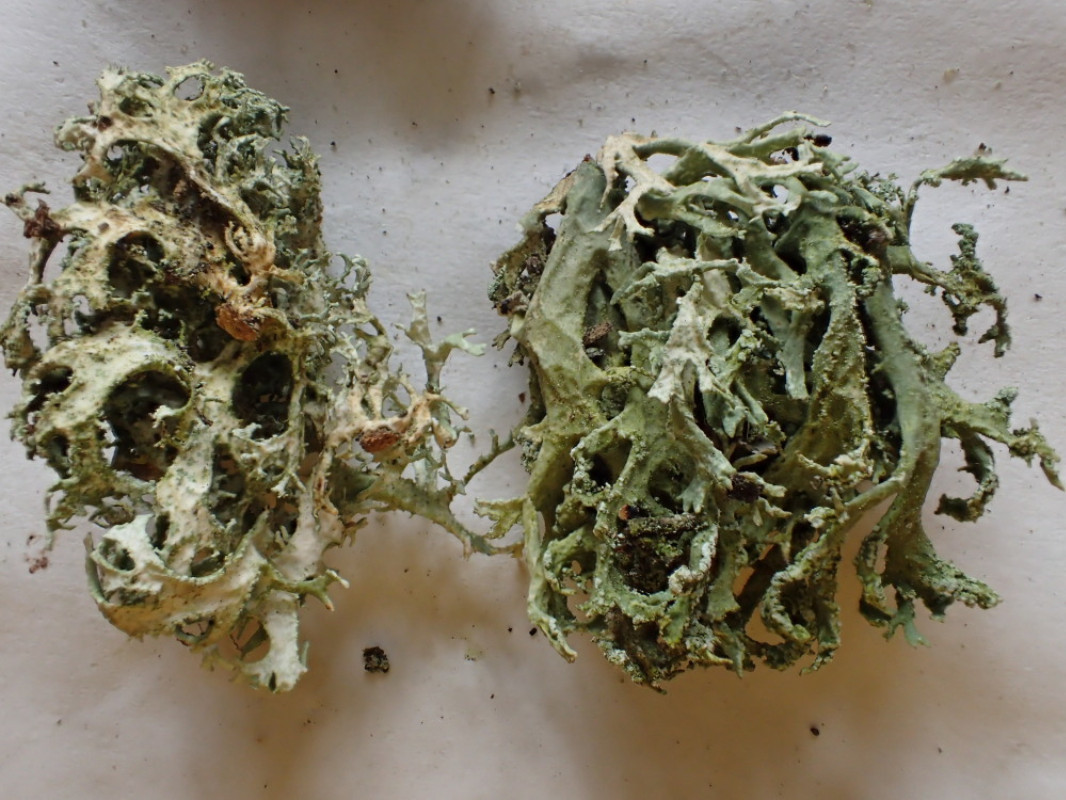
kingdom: Fungi
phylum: Ascomycota
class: Lecanoromycetes
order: Lecanorales
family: Parmeliaceae
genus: Evernia
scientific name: Evernia prunastri
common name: almindelig slåenlav
